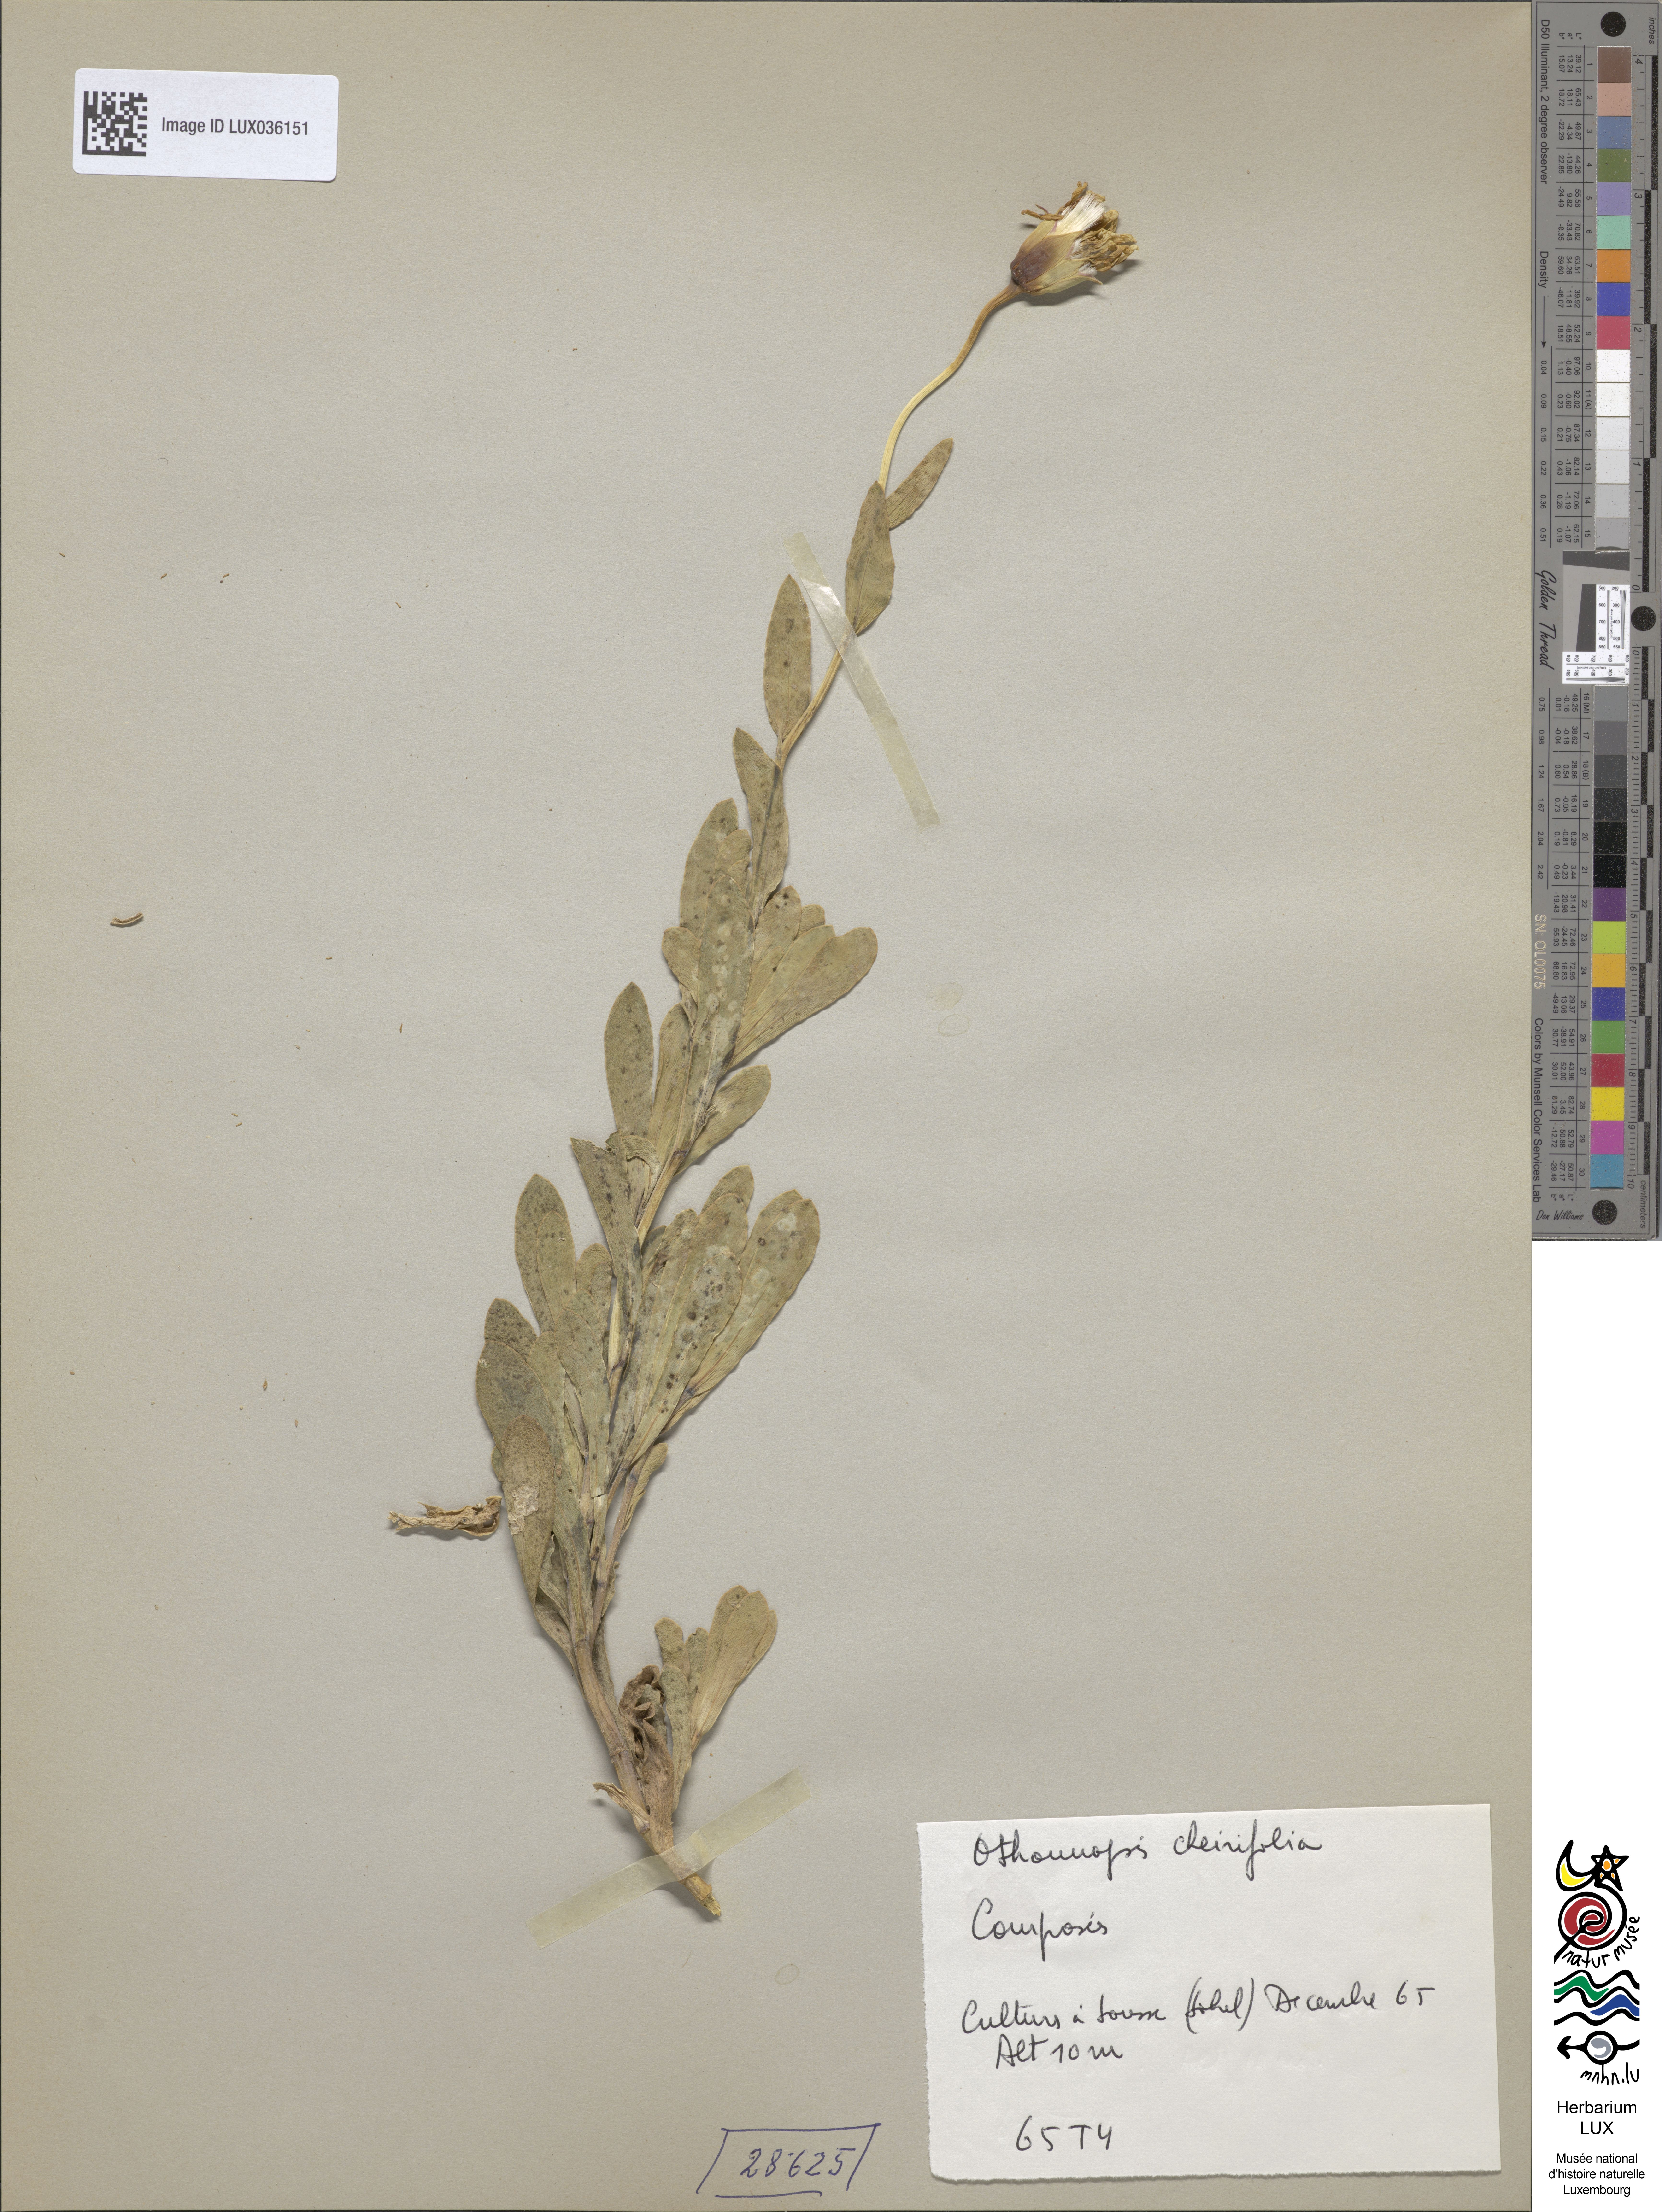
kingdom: Plantae
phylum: Tracheophyta
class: Magnoliopsida
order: Asterales
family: Asteraceae
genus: Hertia
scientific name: Hertia
